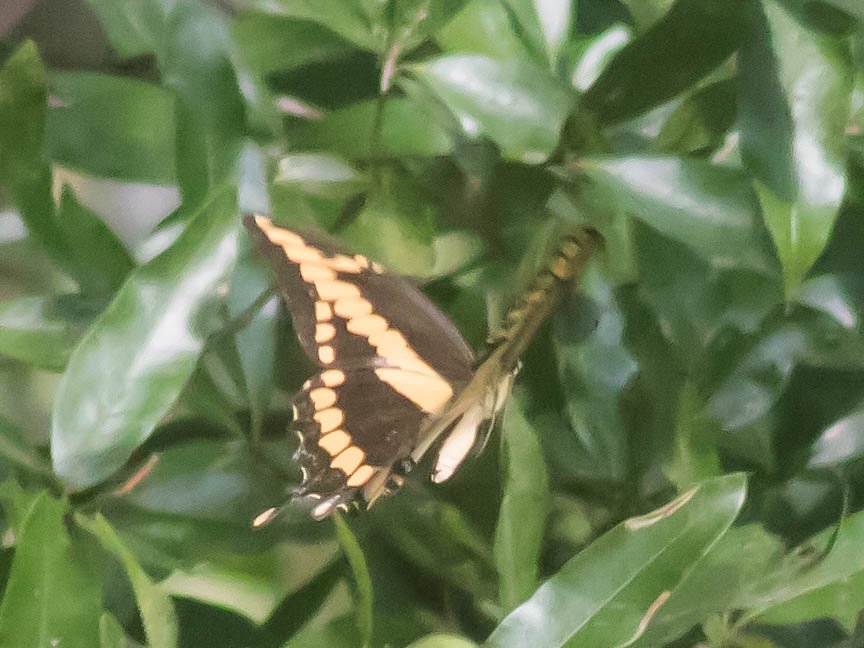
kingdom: Animalia
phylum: Arthropoda
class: Insecta
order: Lepidoptera
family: Papilionidae
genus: Papilio
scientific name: Papilio cresphontes
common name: Eastern Giant Swallowtail
